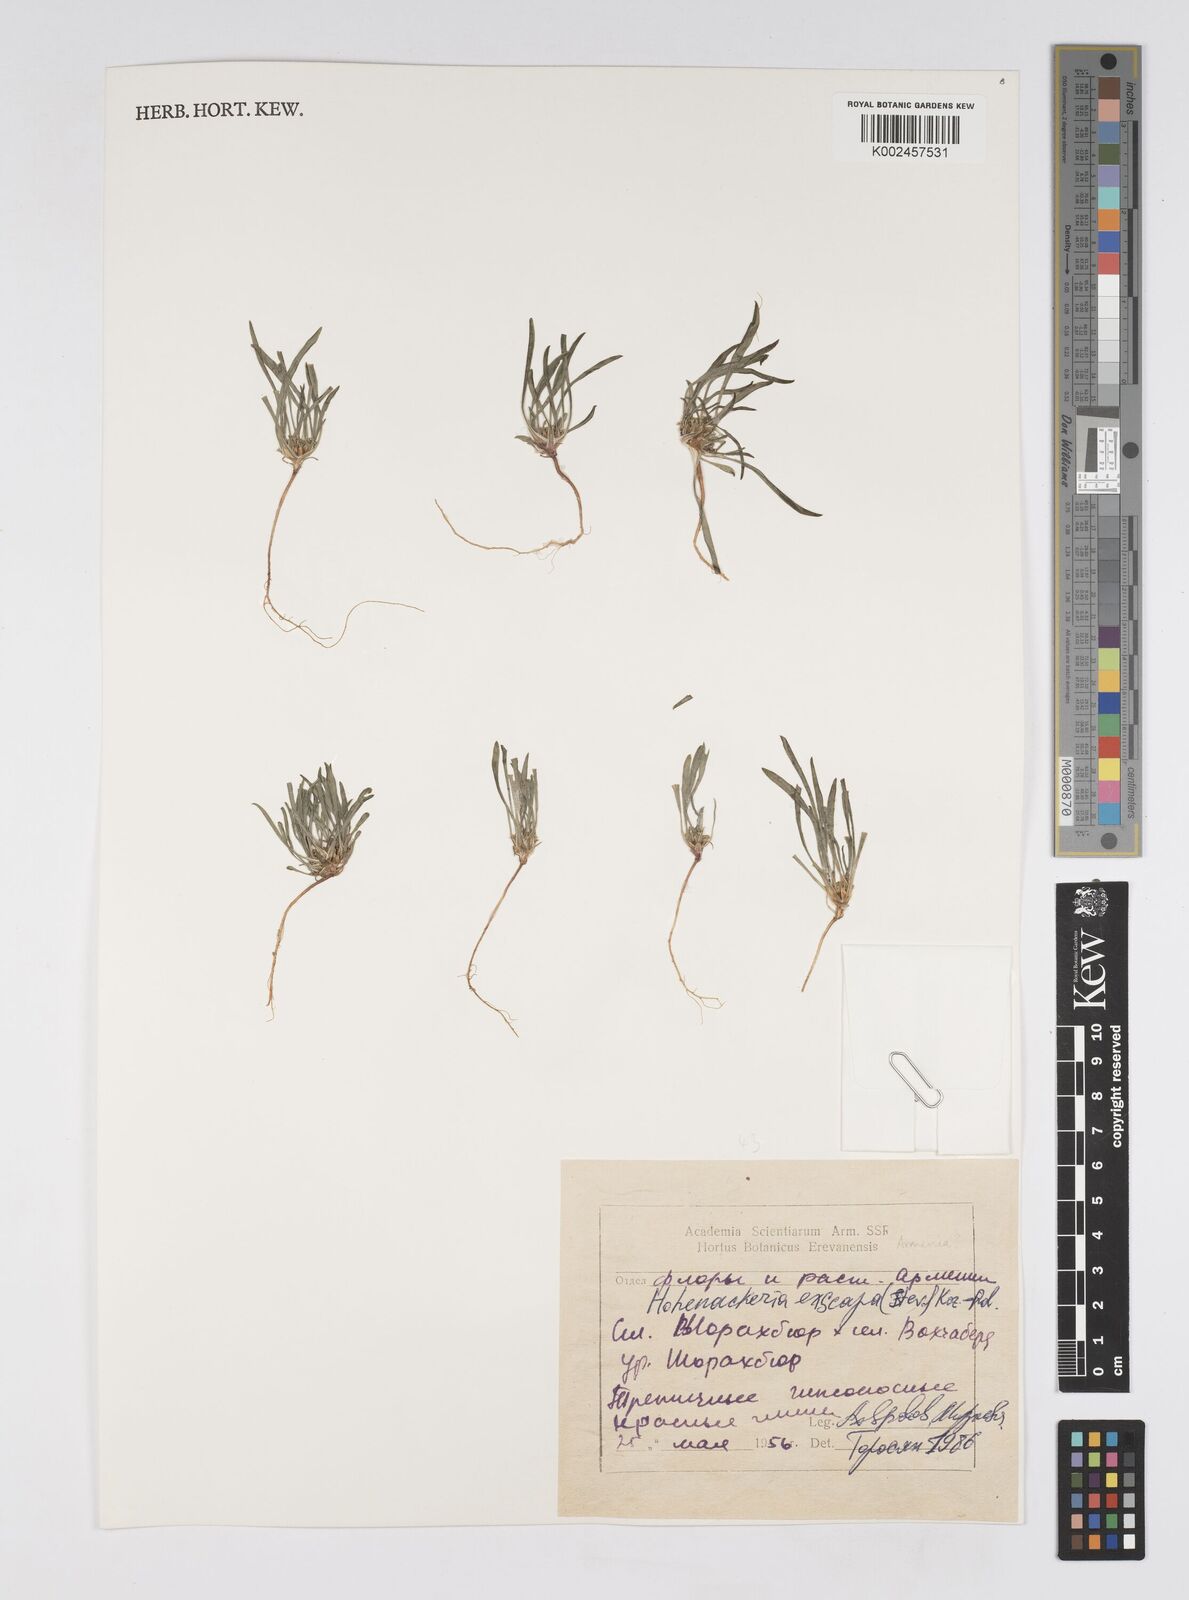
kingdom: Plantae
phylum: Tracheophyta
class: Magnoliopsida
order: Apiales
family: Apiaceae
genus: Hohenackeria
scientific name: Hohenackeria exscapa
